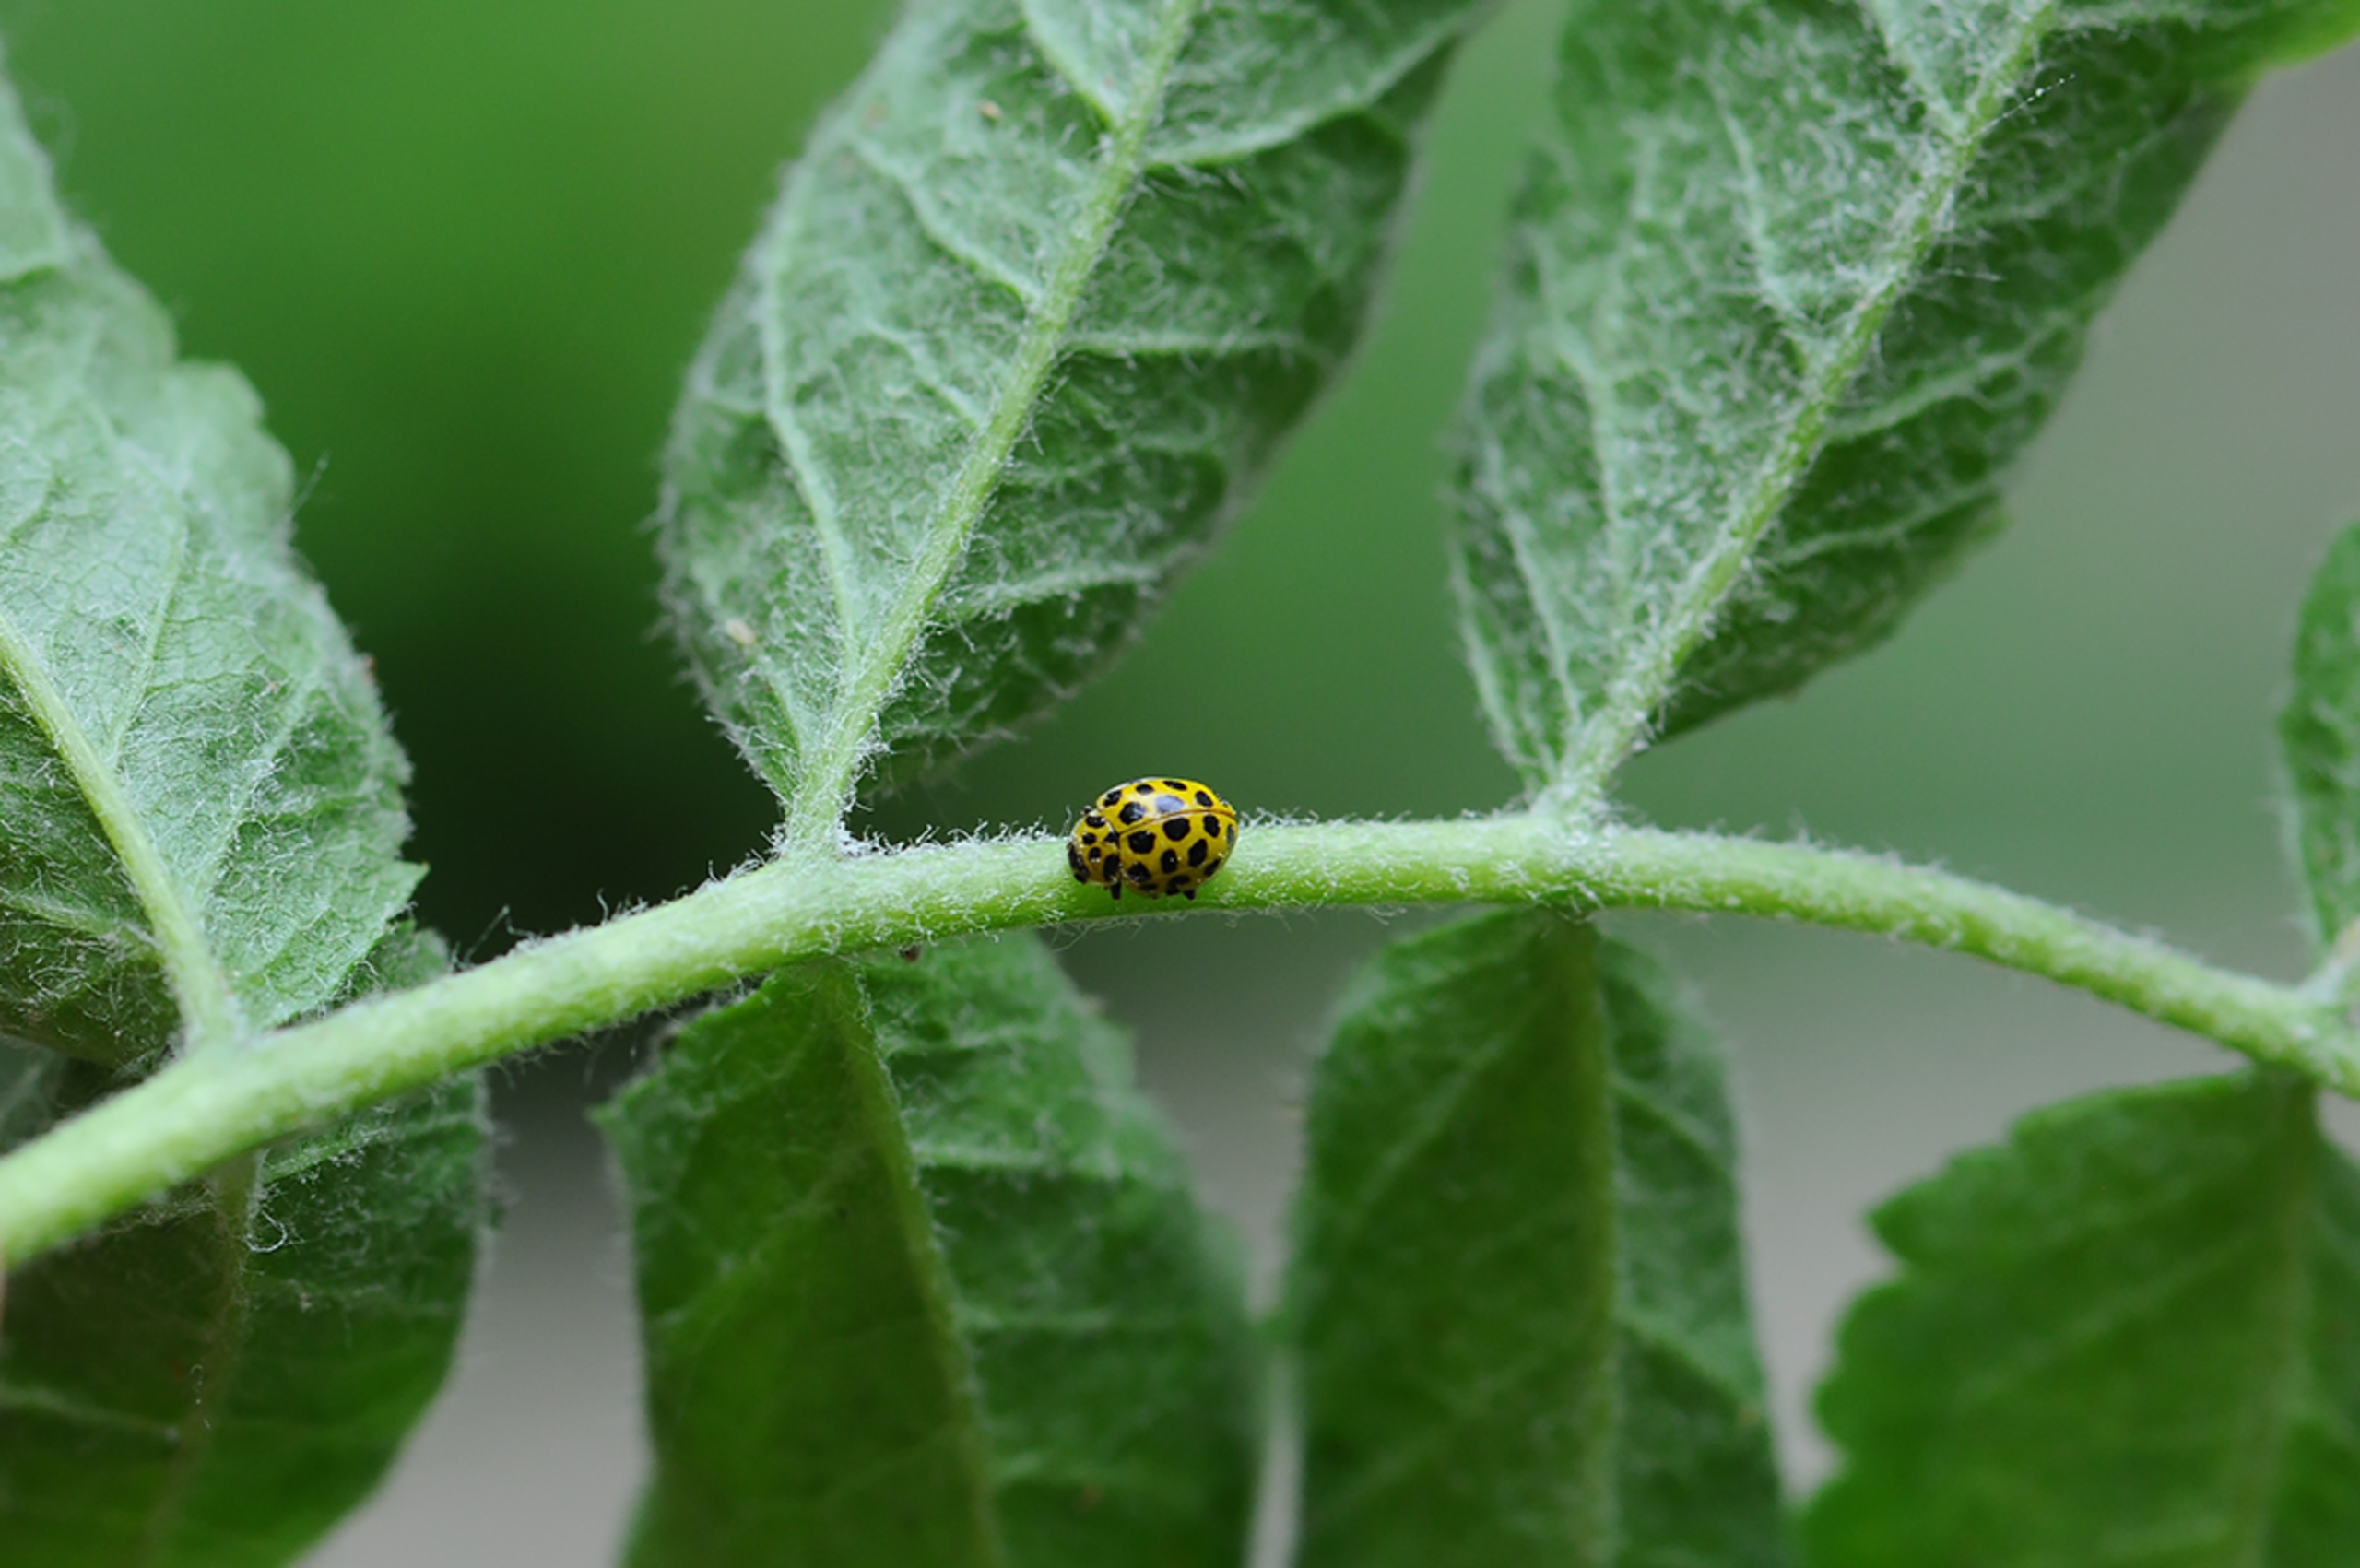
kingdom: Animalia
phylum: Arthropoda
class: Insecta
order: Coleoptera
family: Coccinellidae
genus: Psyllobora
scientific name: Psyllobora vigintiduopunctata
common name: Toogtyveplettet mariehøne
